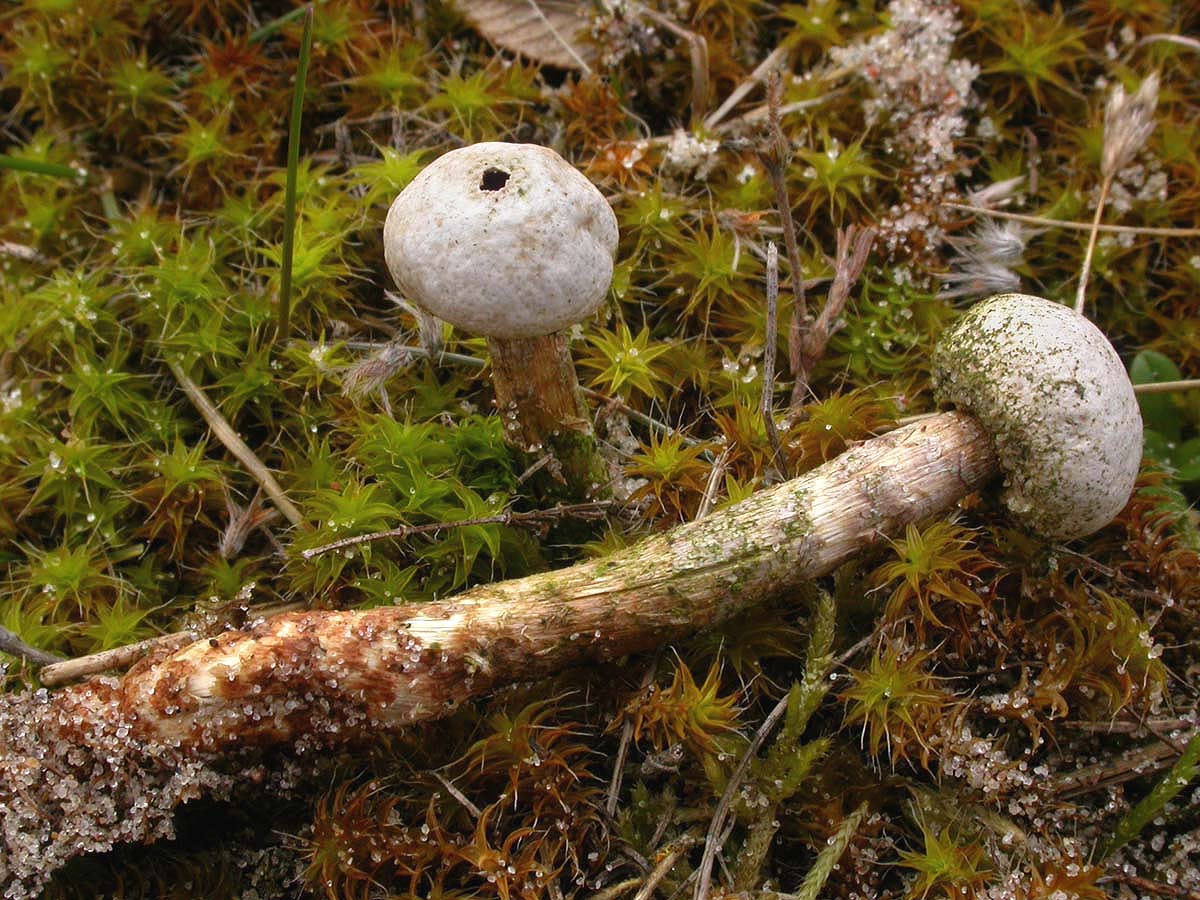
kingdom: Fungi
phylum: Basidiomycota
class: Agaricomycetes
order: Agaricales
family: Agaricaceae
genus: Tulostoma
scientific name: Tulostoma fimbriatum
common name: frynset stilkbovist
